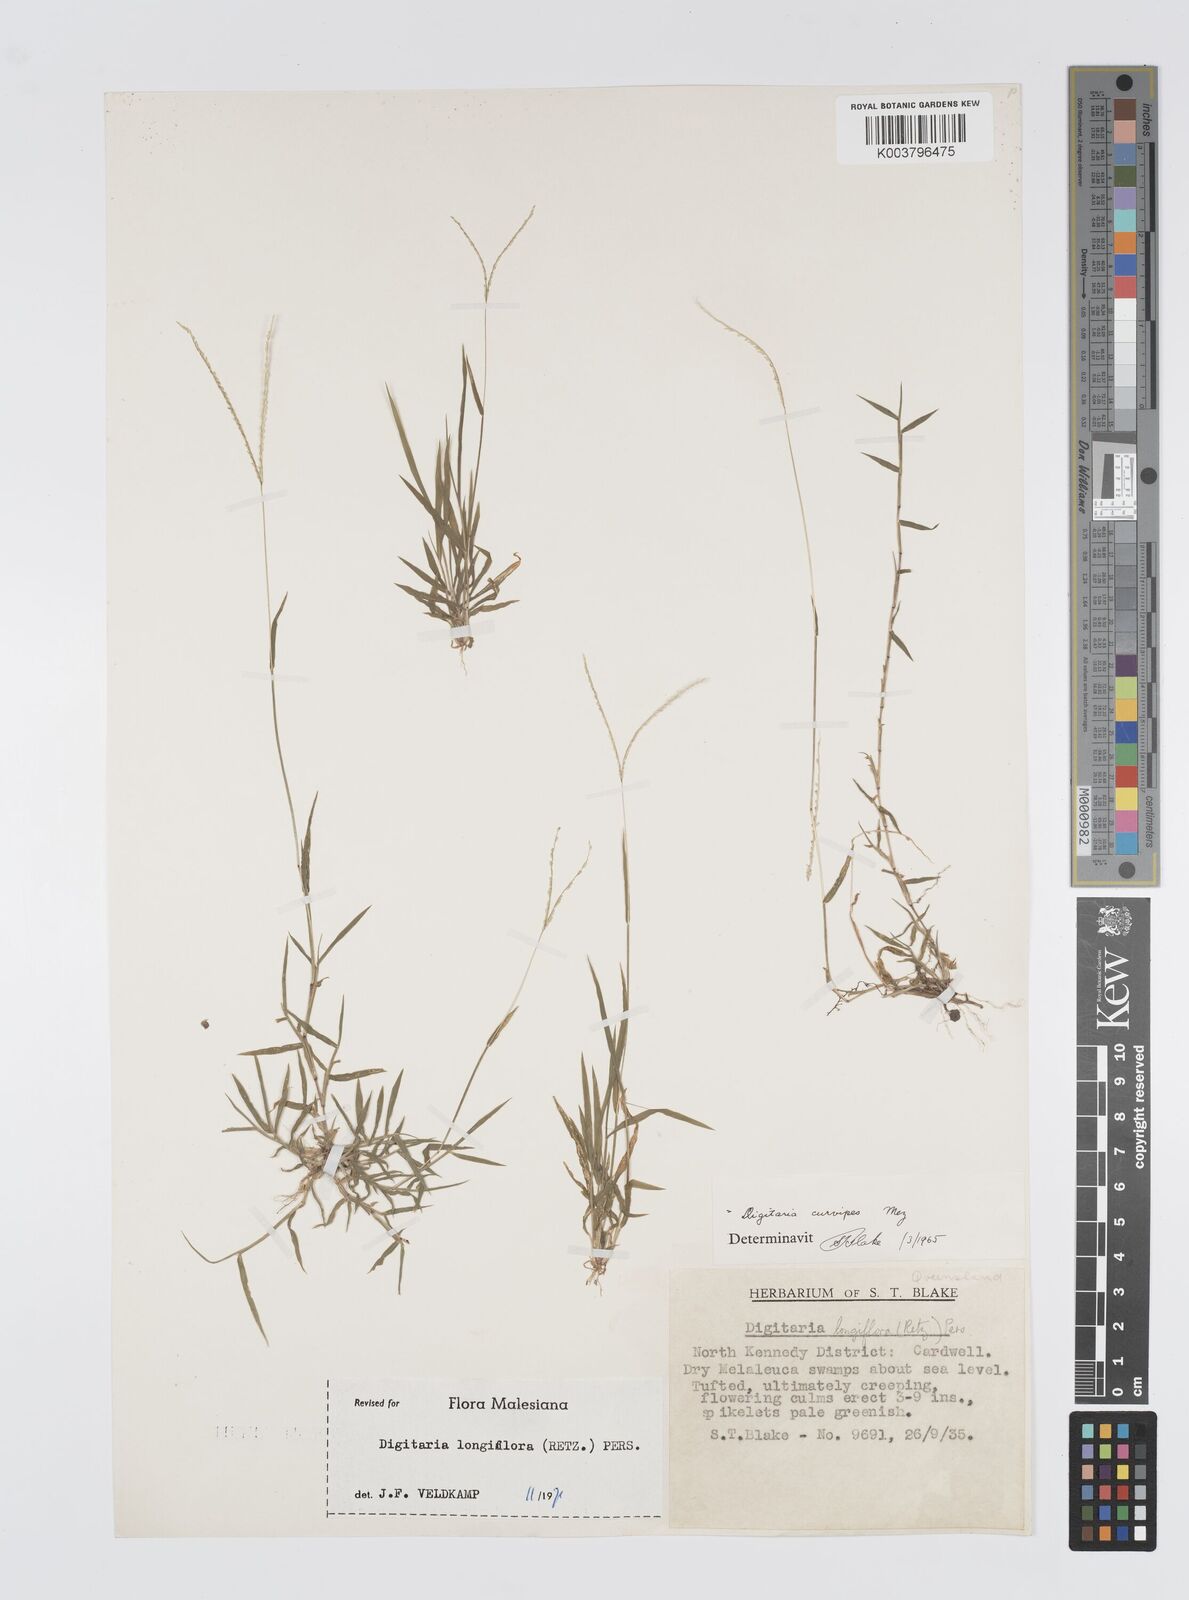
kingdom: Plantae
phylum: Tracheophyta
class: Liliopsida
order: Poales
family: Poaceae
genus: Digitaria
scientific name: Digitaria longiflora
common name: Wire crabgrass
